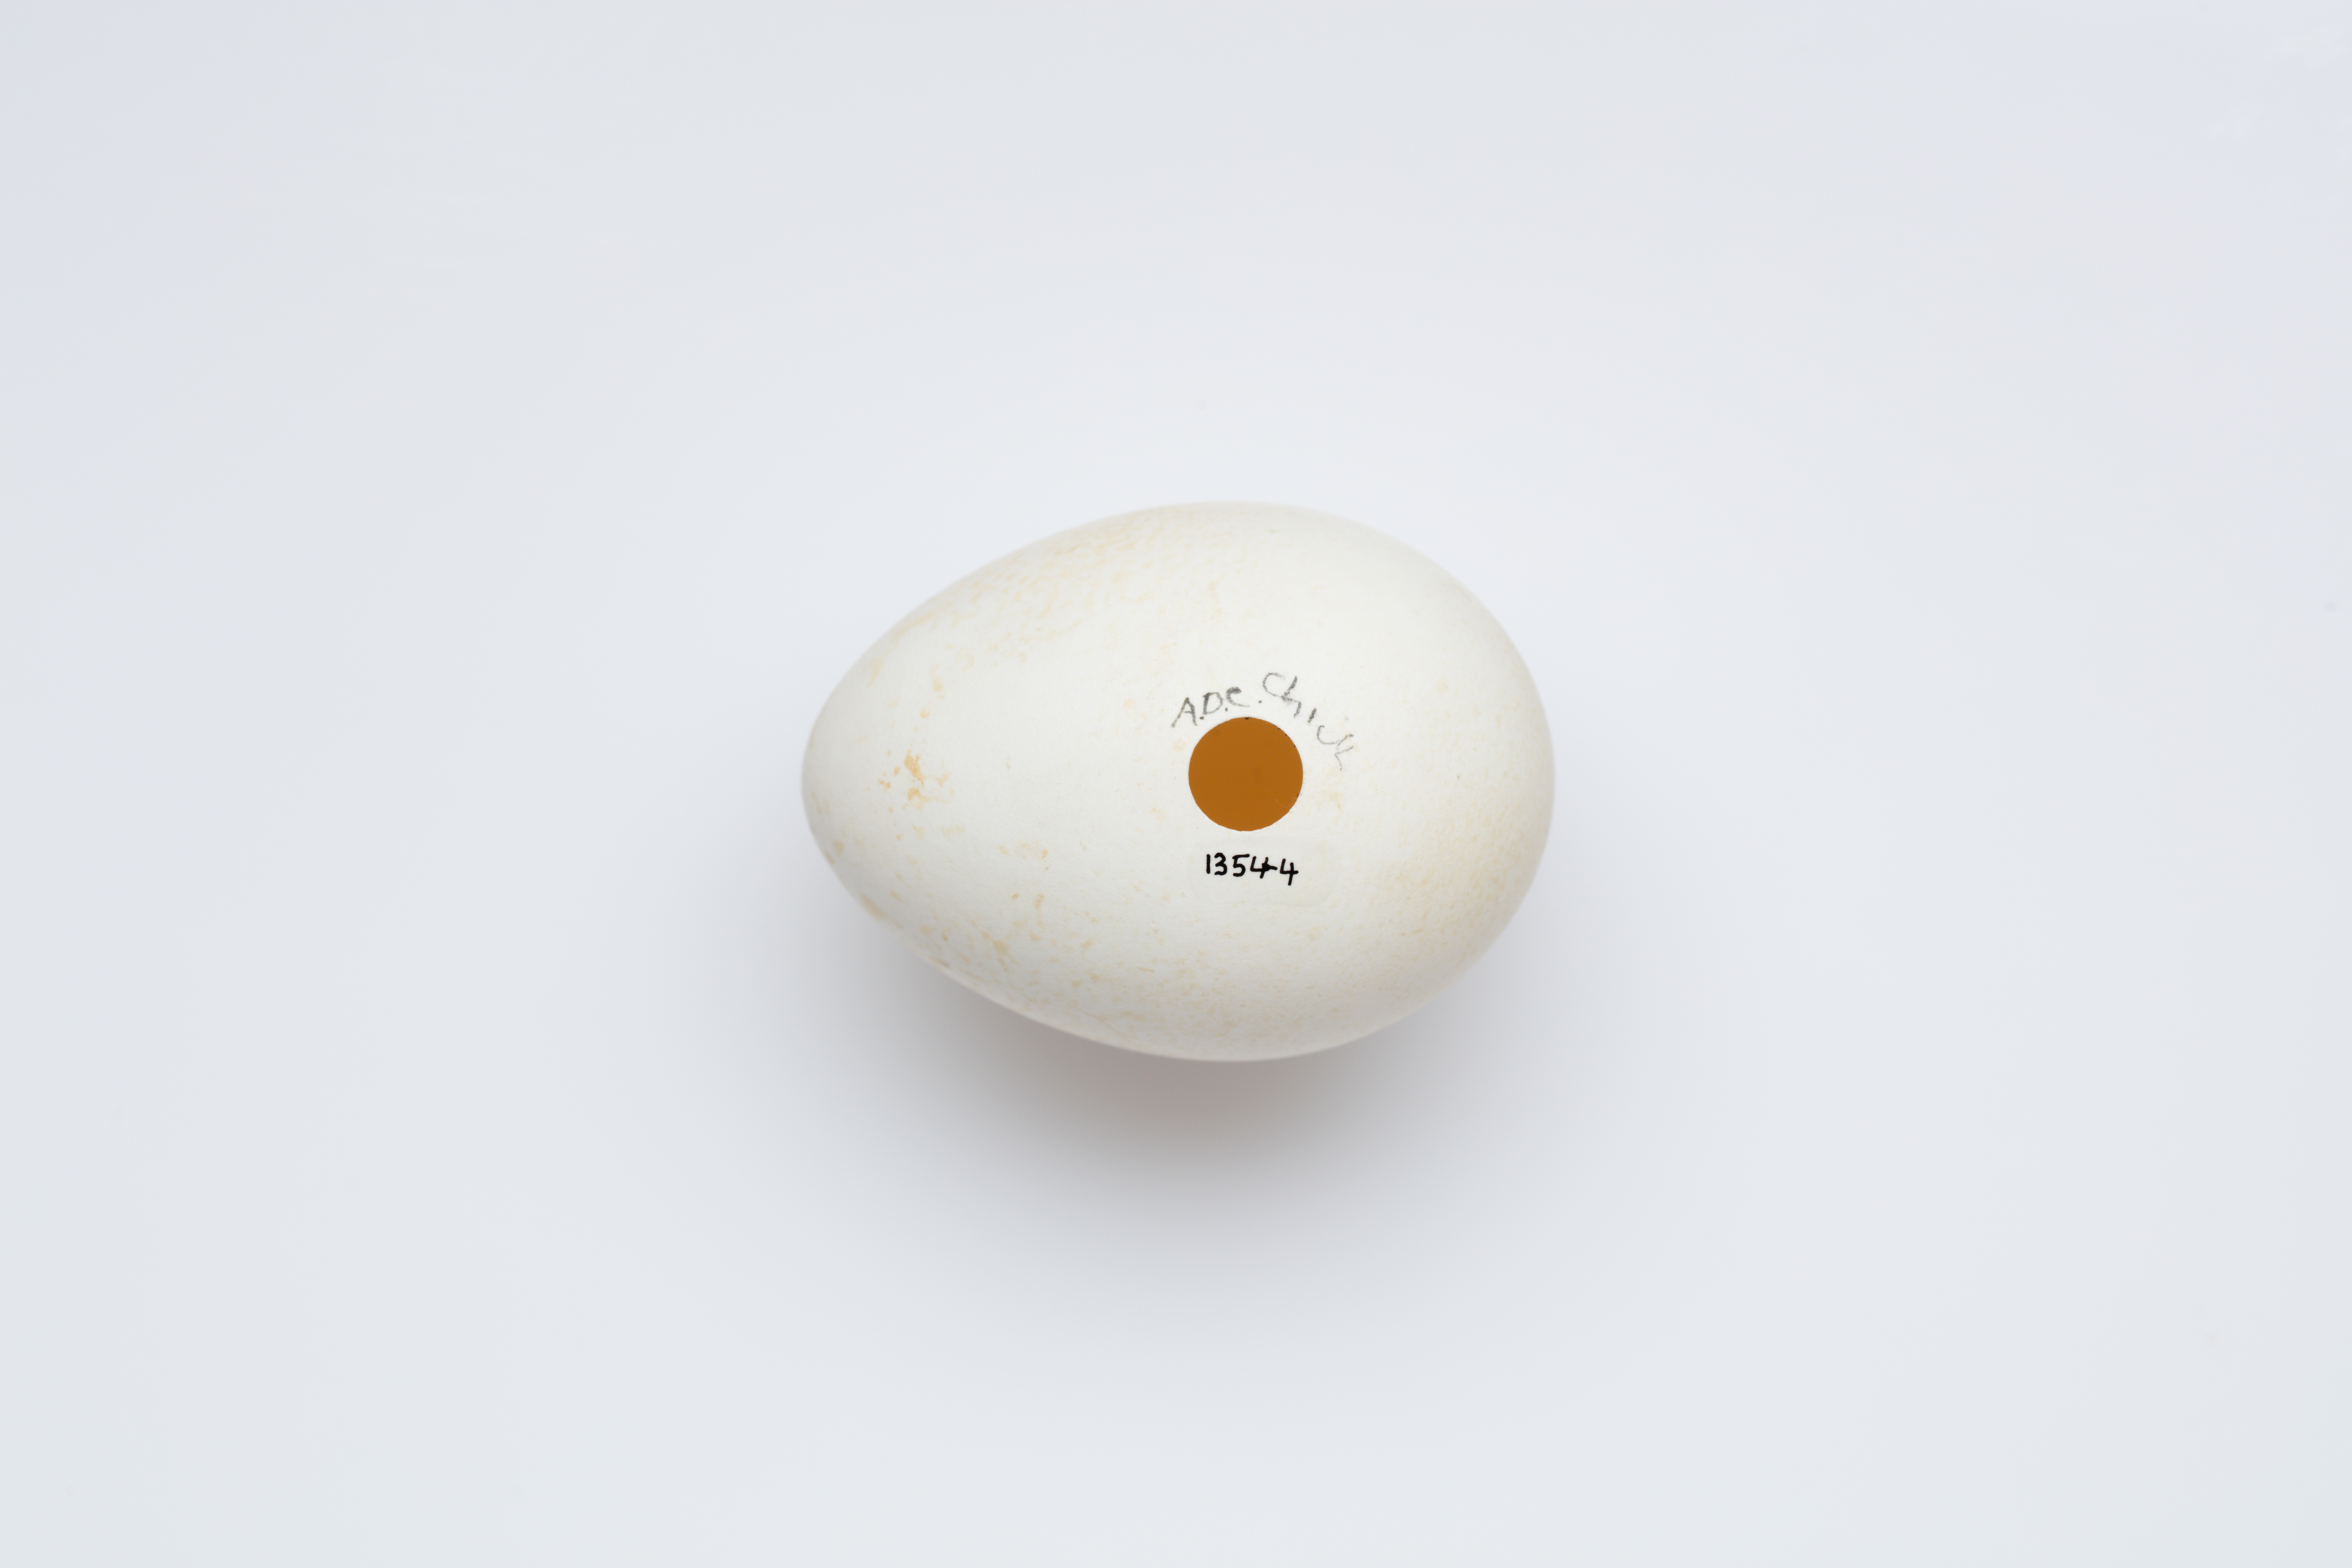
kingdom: Animalia
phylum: Chordata
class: Aves
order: Sphenisciformes
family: Spheniscidae
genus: Eudyptula
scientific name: Eudyptula minor
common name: Little penguin
